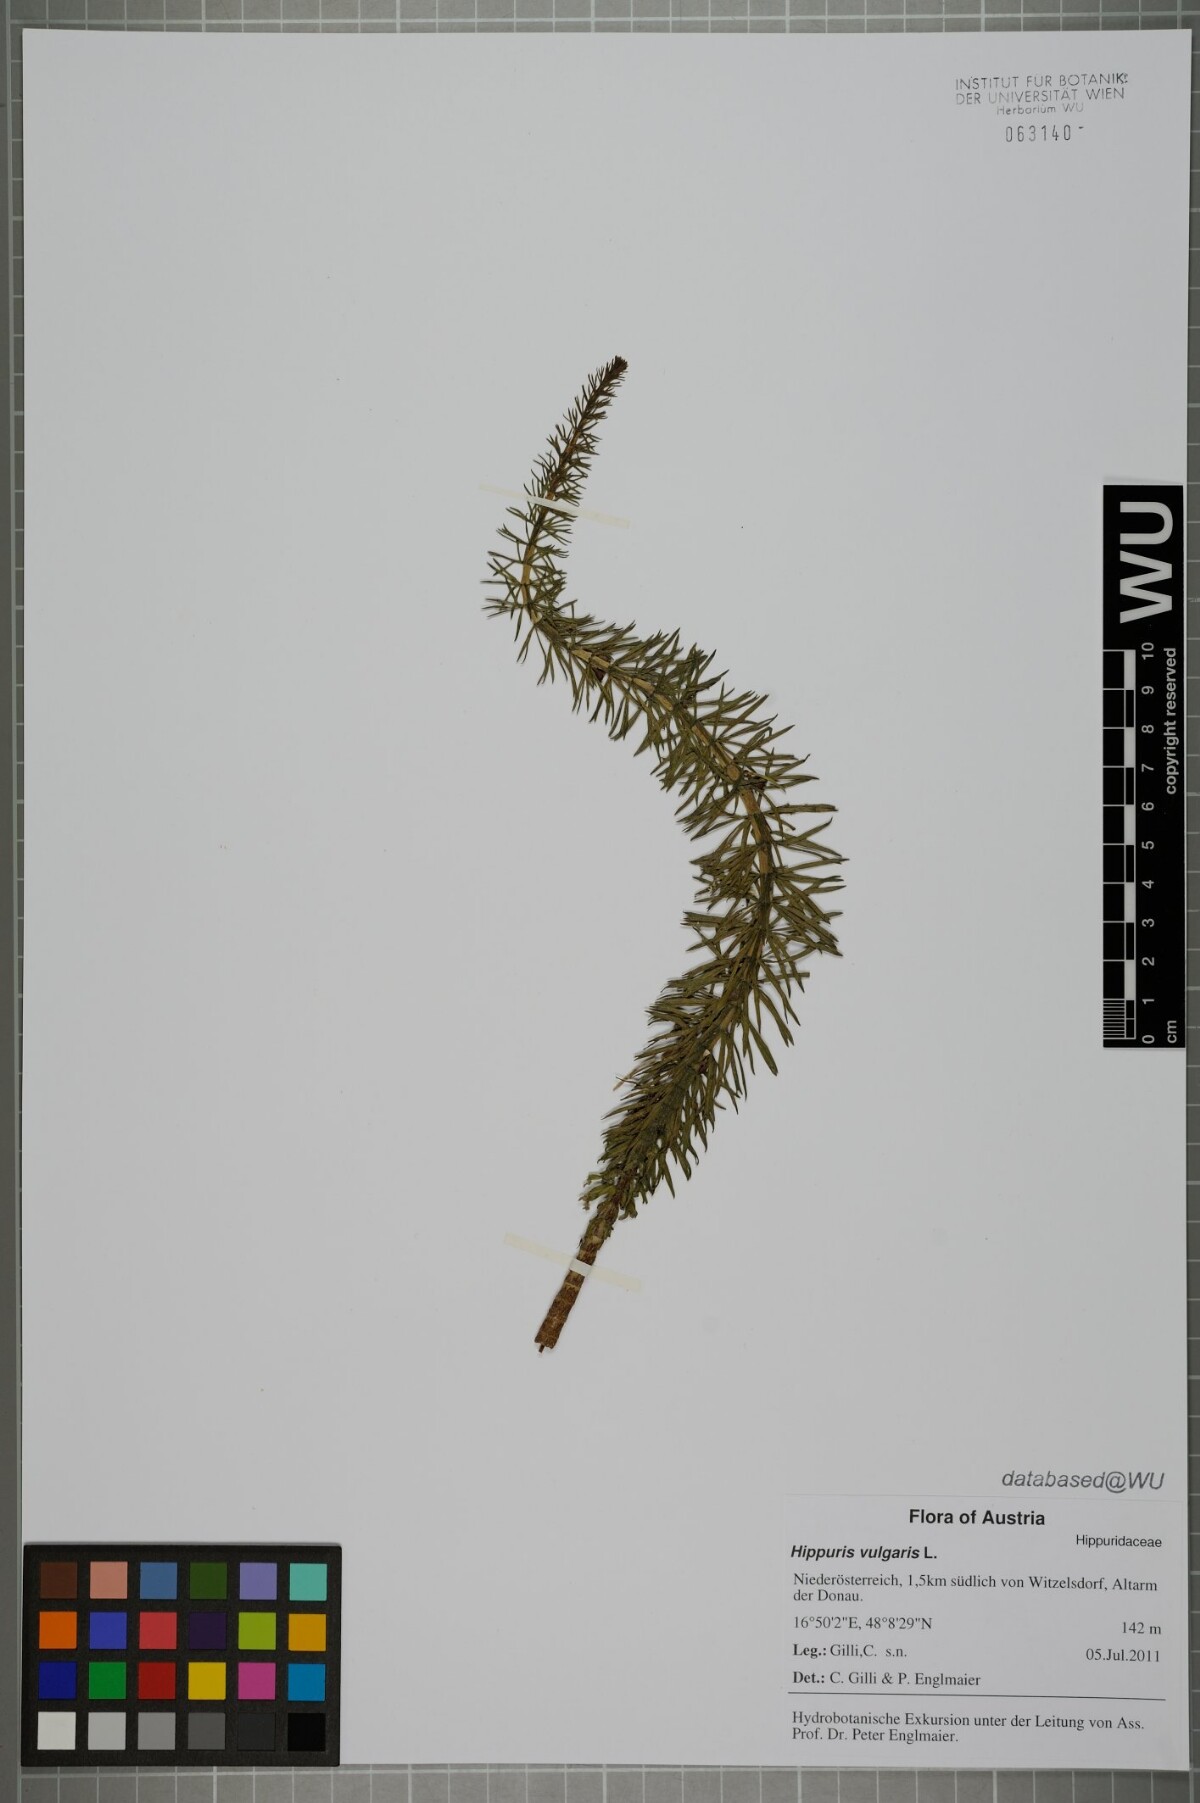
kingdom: Plantae
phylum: Tracheophyta
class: Magnoliopsida
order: Lamiales
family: Plantaginaceae
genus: Hippuris
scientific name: Hippuris vulgaris
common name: Mare's-tail
